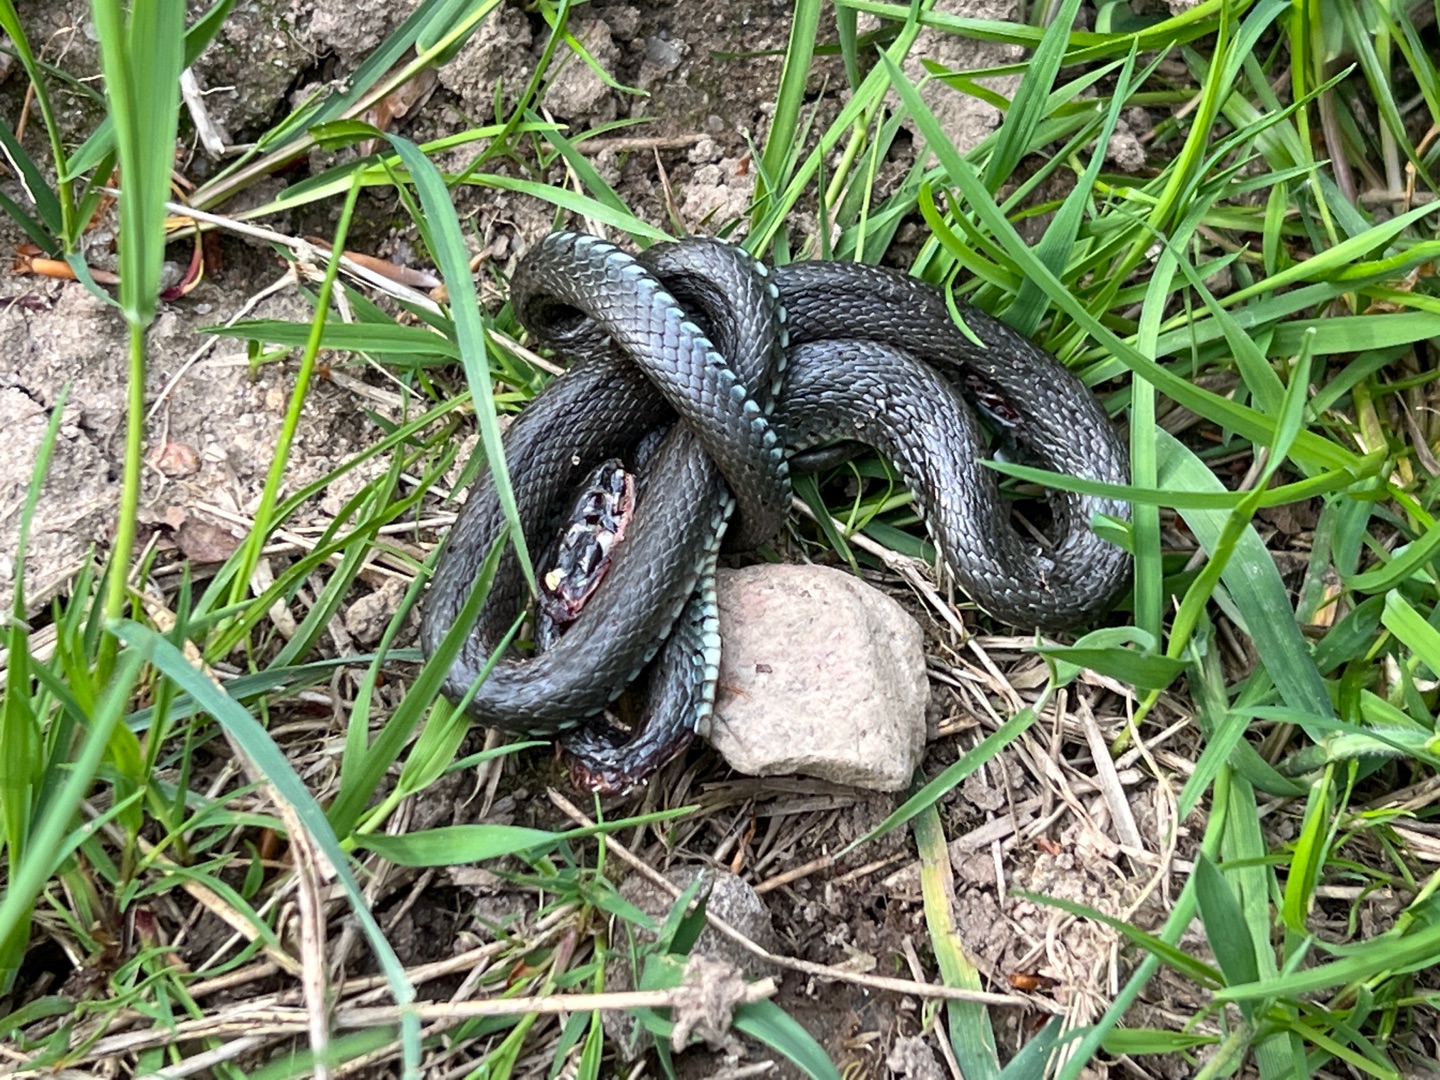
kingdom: Animalia
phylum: Chordata
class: Squamata
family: Colubridae
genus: Natrix
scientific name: Natrix natrix
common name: Snog
